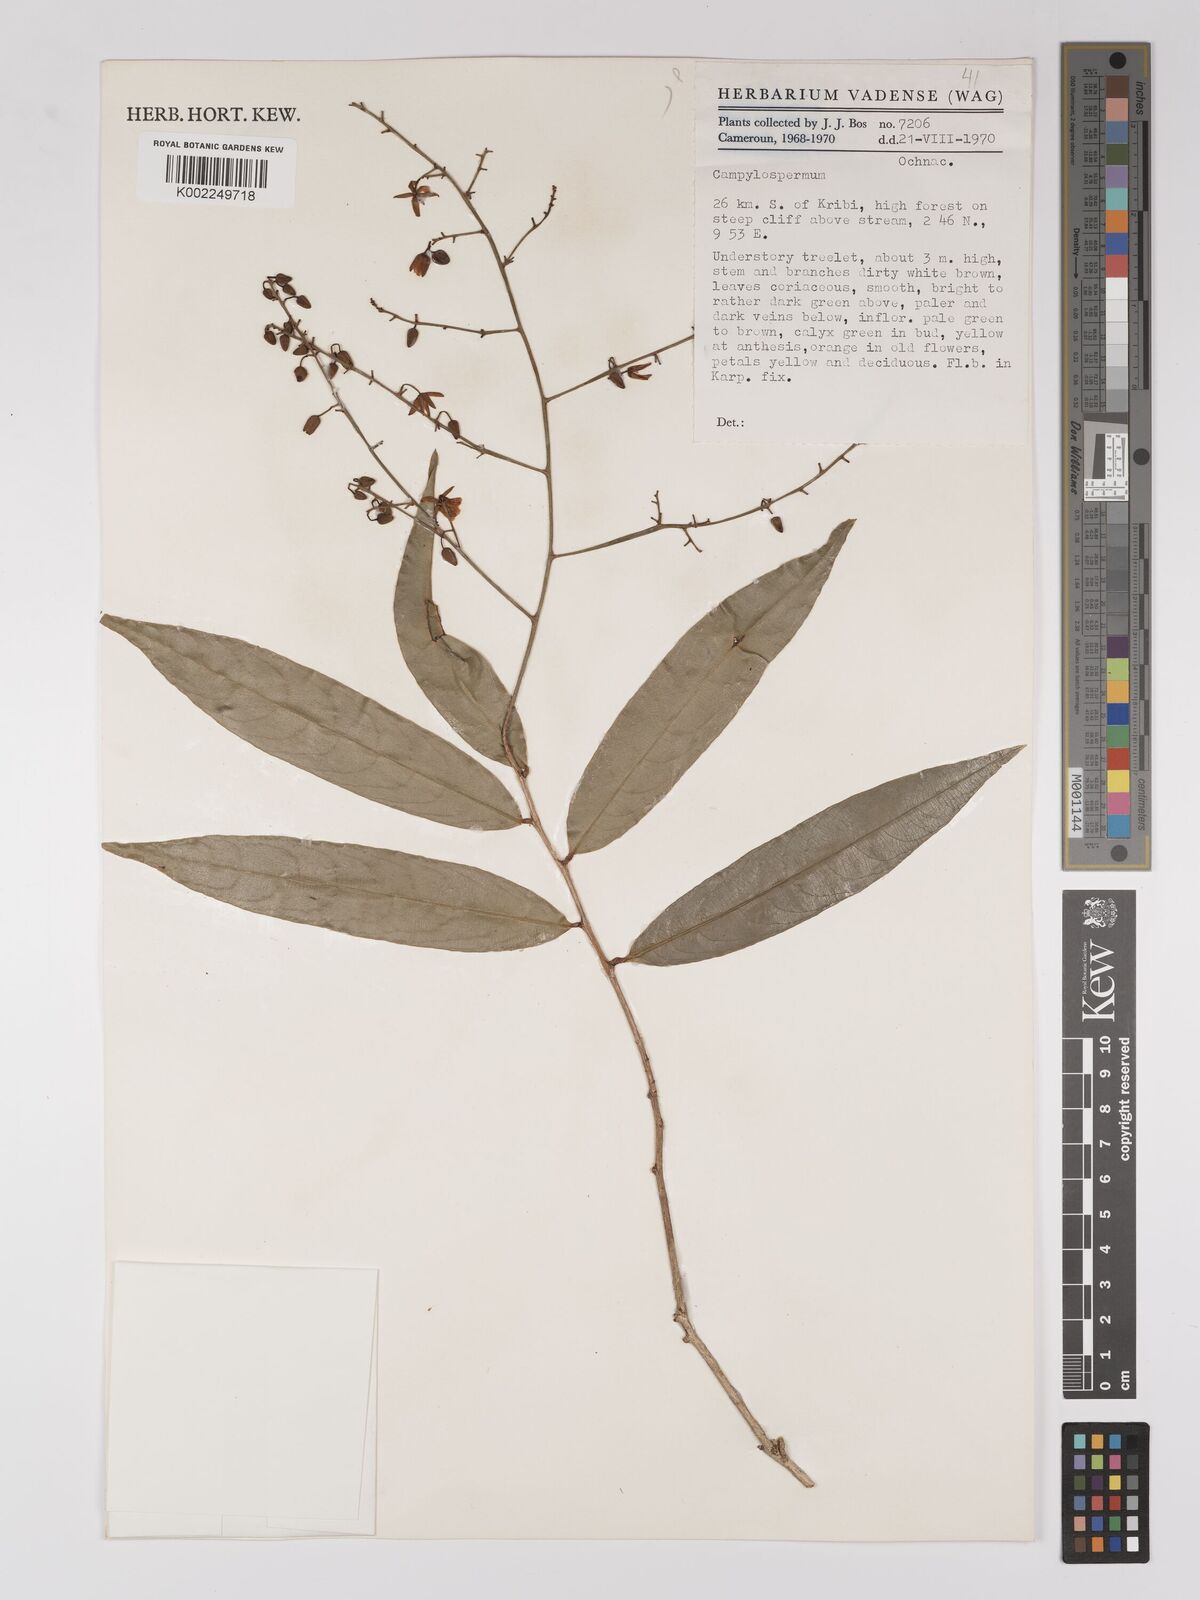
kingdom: Plantae
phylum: Tracheophyta
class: Magnoliopsida
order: Malpighiales
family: Ochnaceae
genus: Campylospermum
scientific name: Campylospermum
